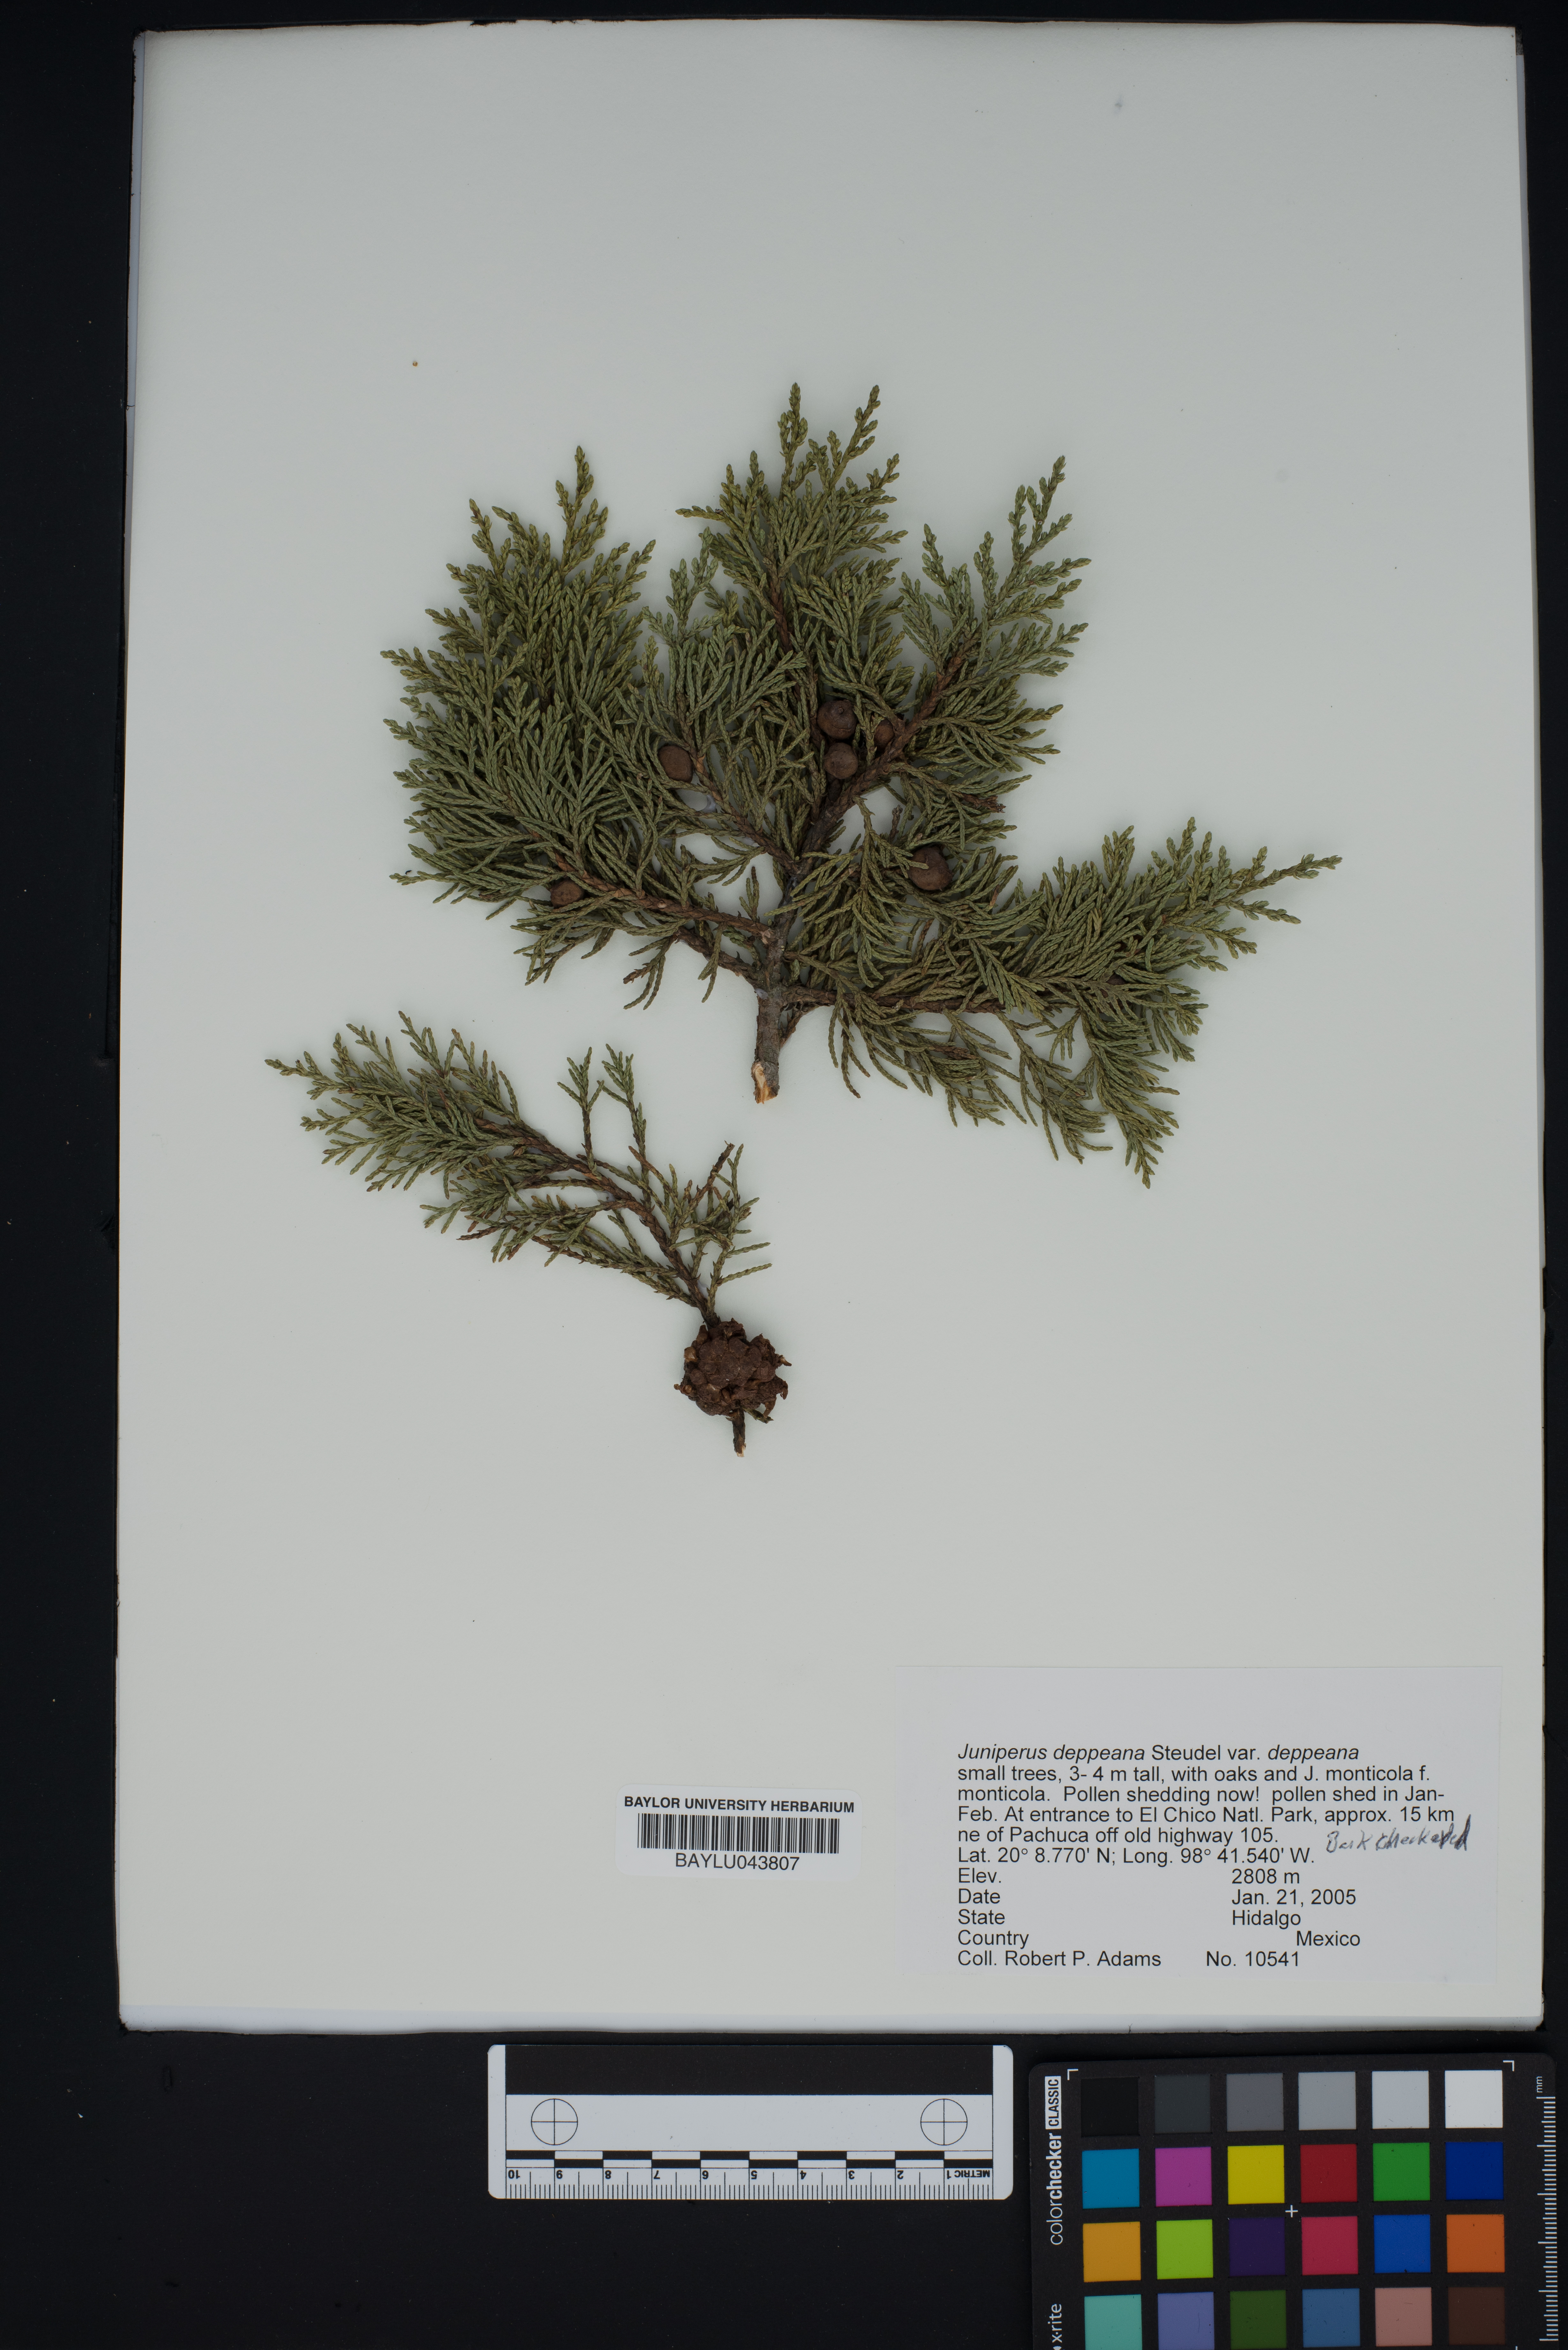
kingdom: Plantae
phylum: Tracheophyta
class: Pinopsida
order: Pinales
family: Cupressaceae
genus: Juniperus
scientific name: Juniperus deppeana
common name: Alligator juniper
